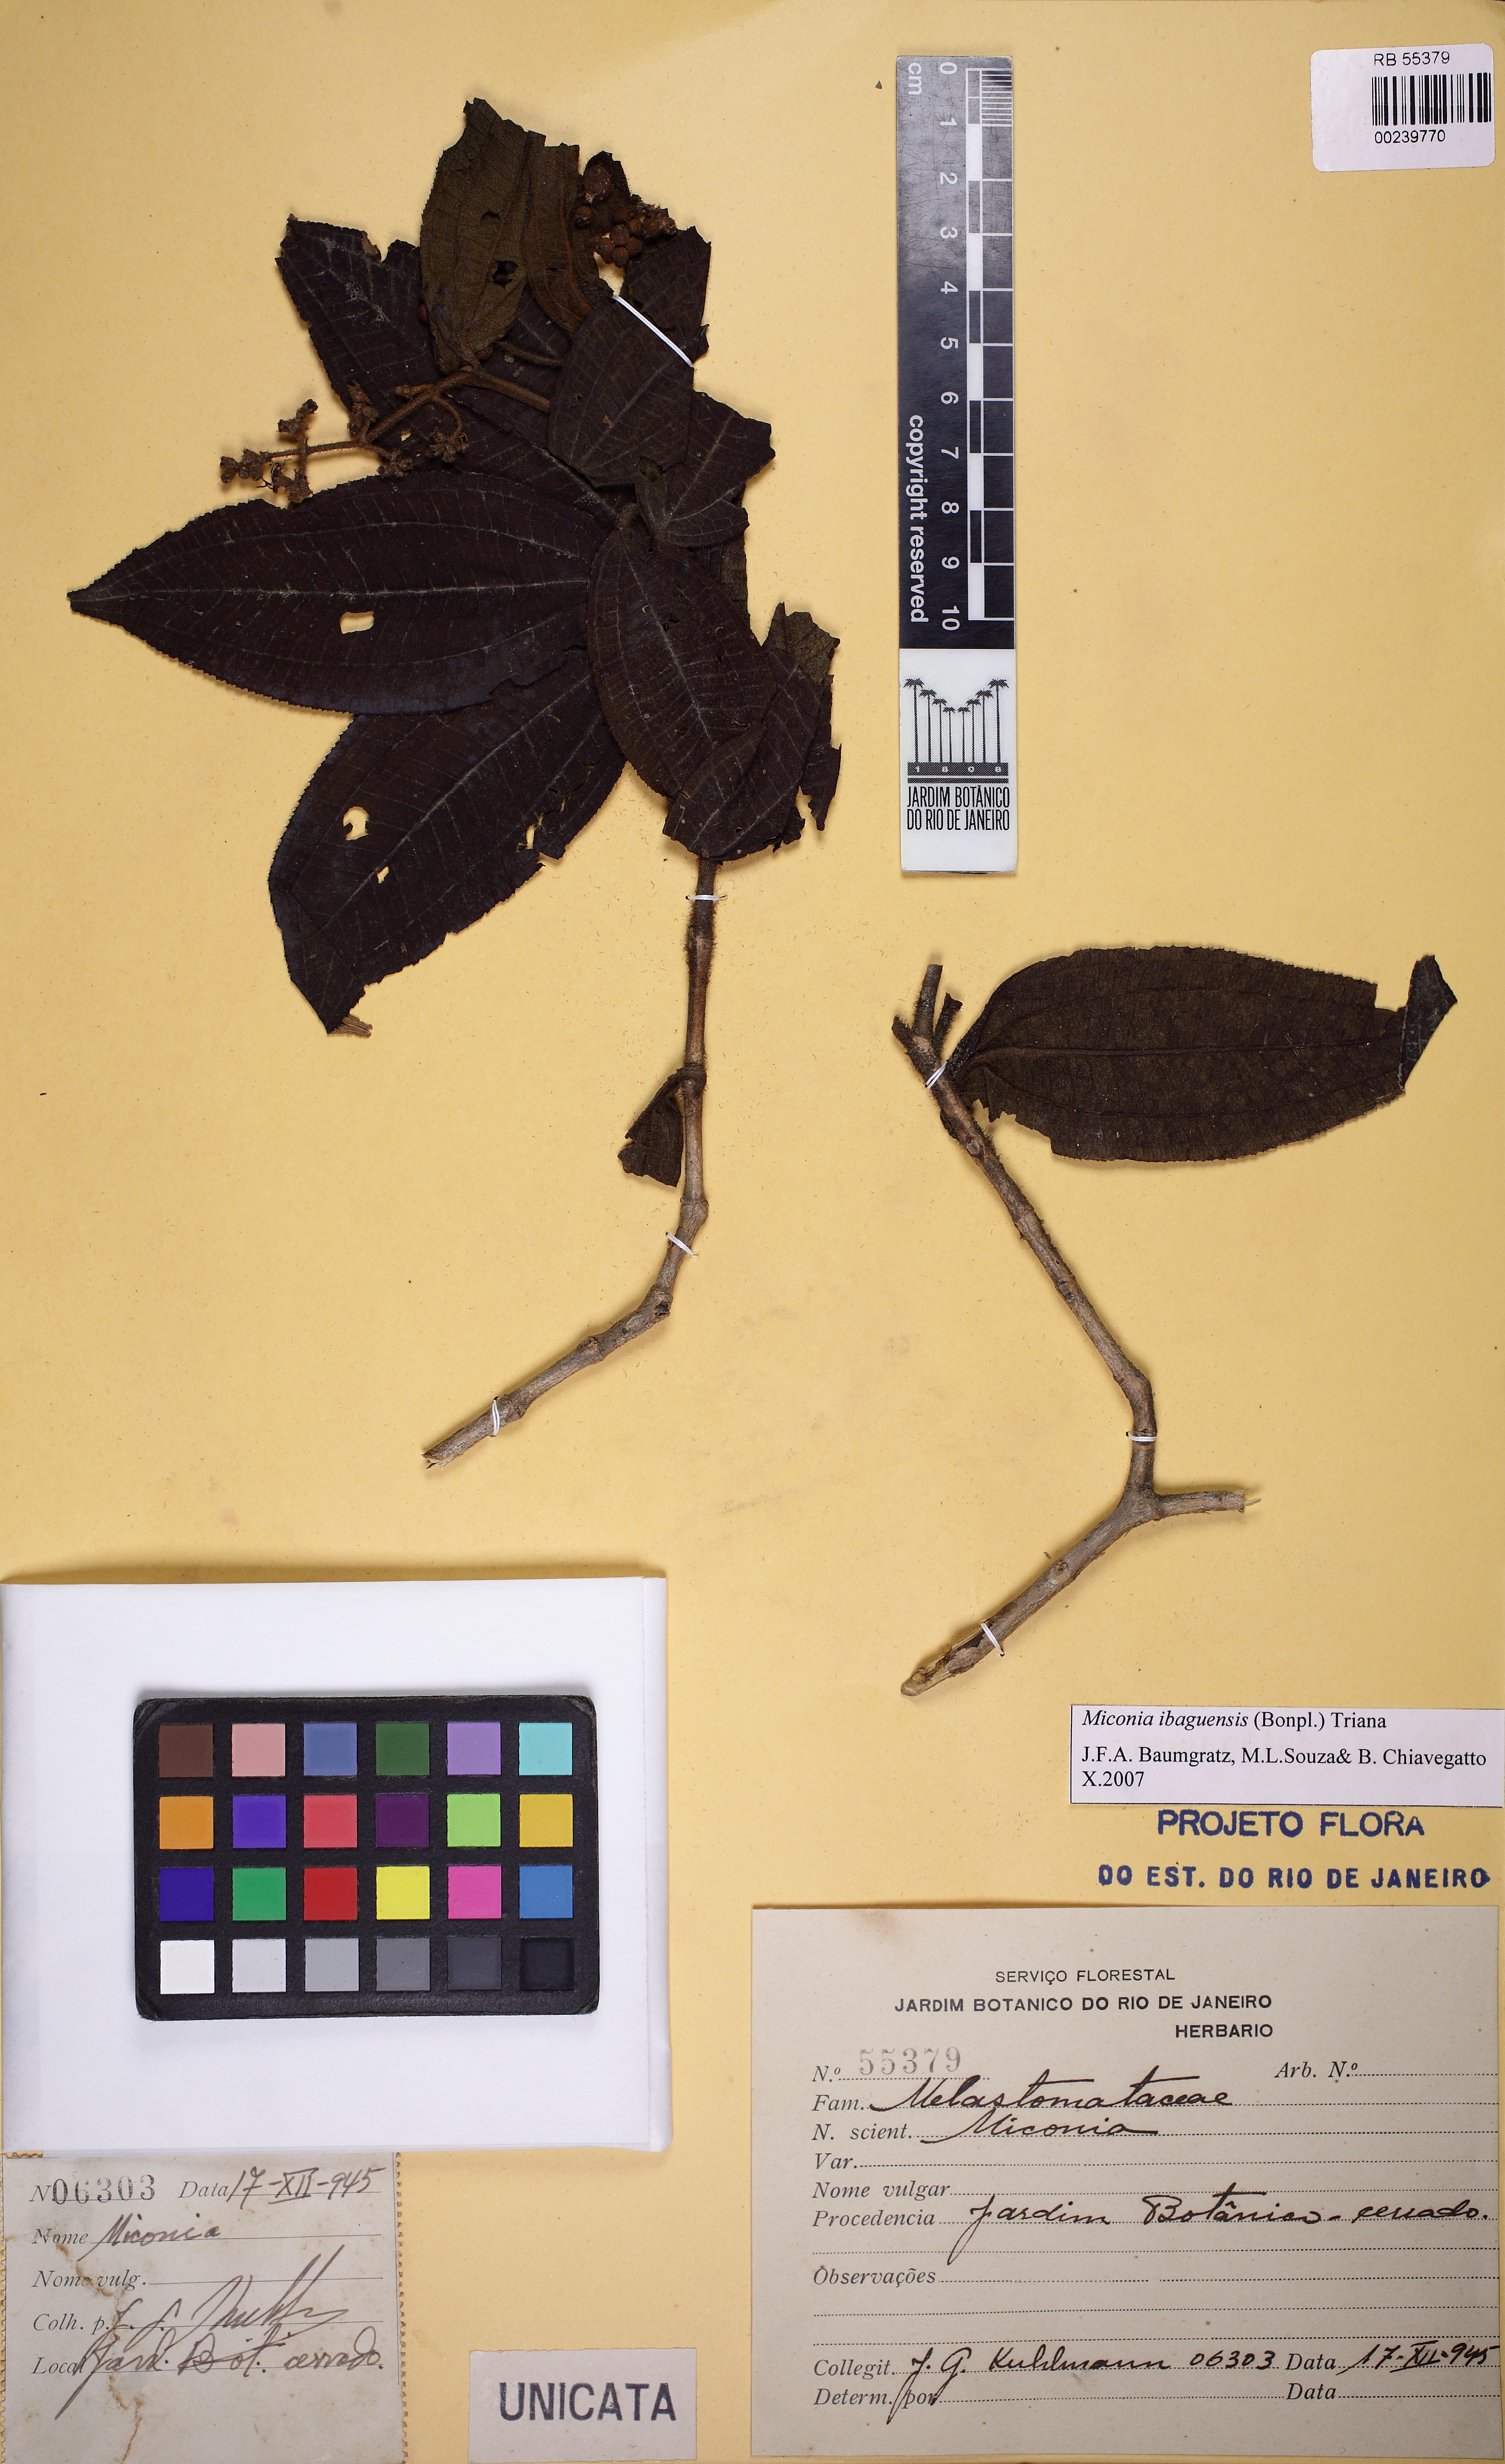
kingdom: Plantae
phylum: Tracheophyta
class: Magnoliopsida
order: Myrtales
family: Melastomataceae
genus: Miconia
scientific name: Miconia ibaguensis
